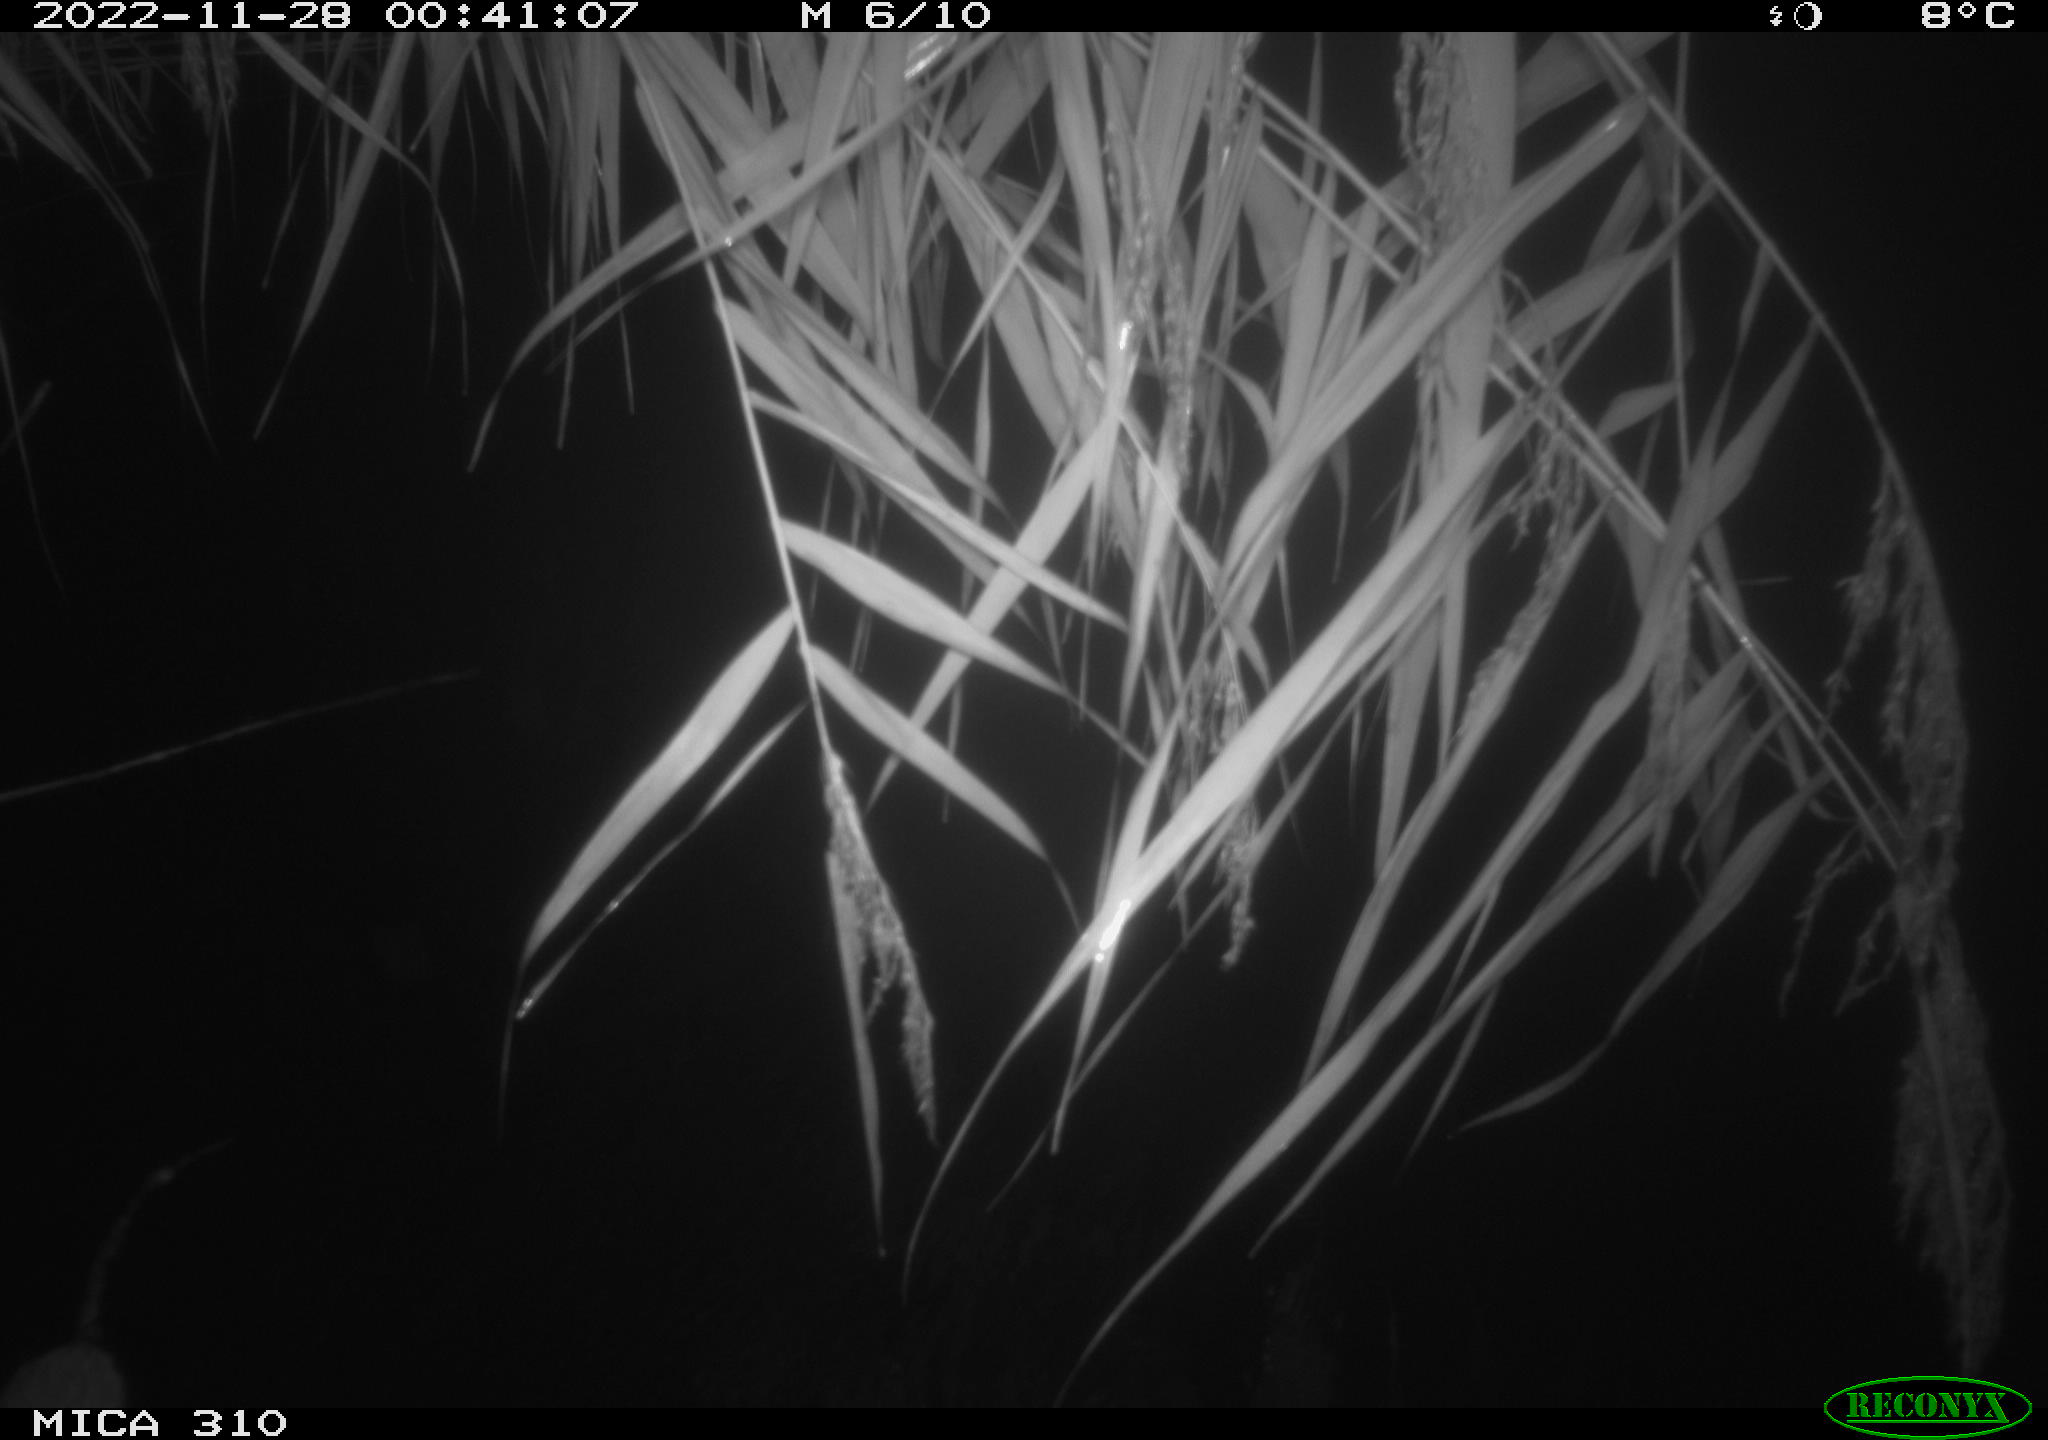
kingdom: Animalia
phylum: Chordata
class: Mammalia
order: Rodentia
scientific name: Rodentia
